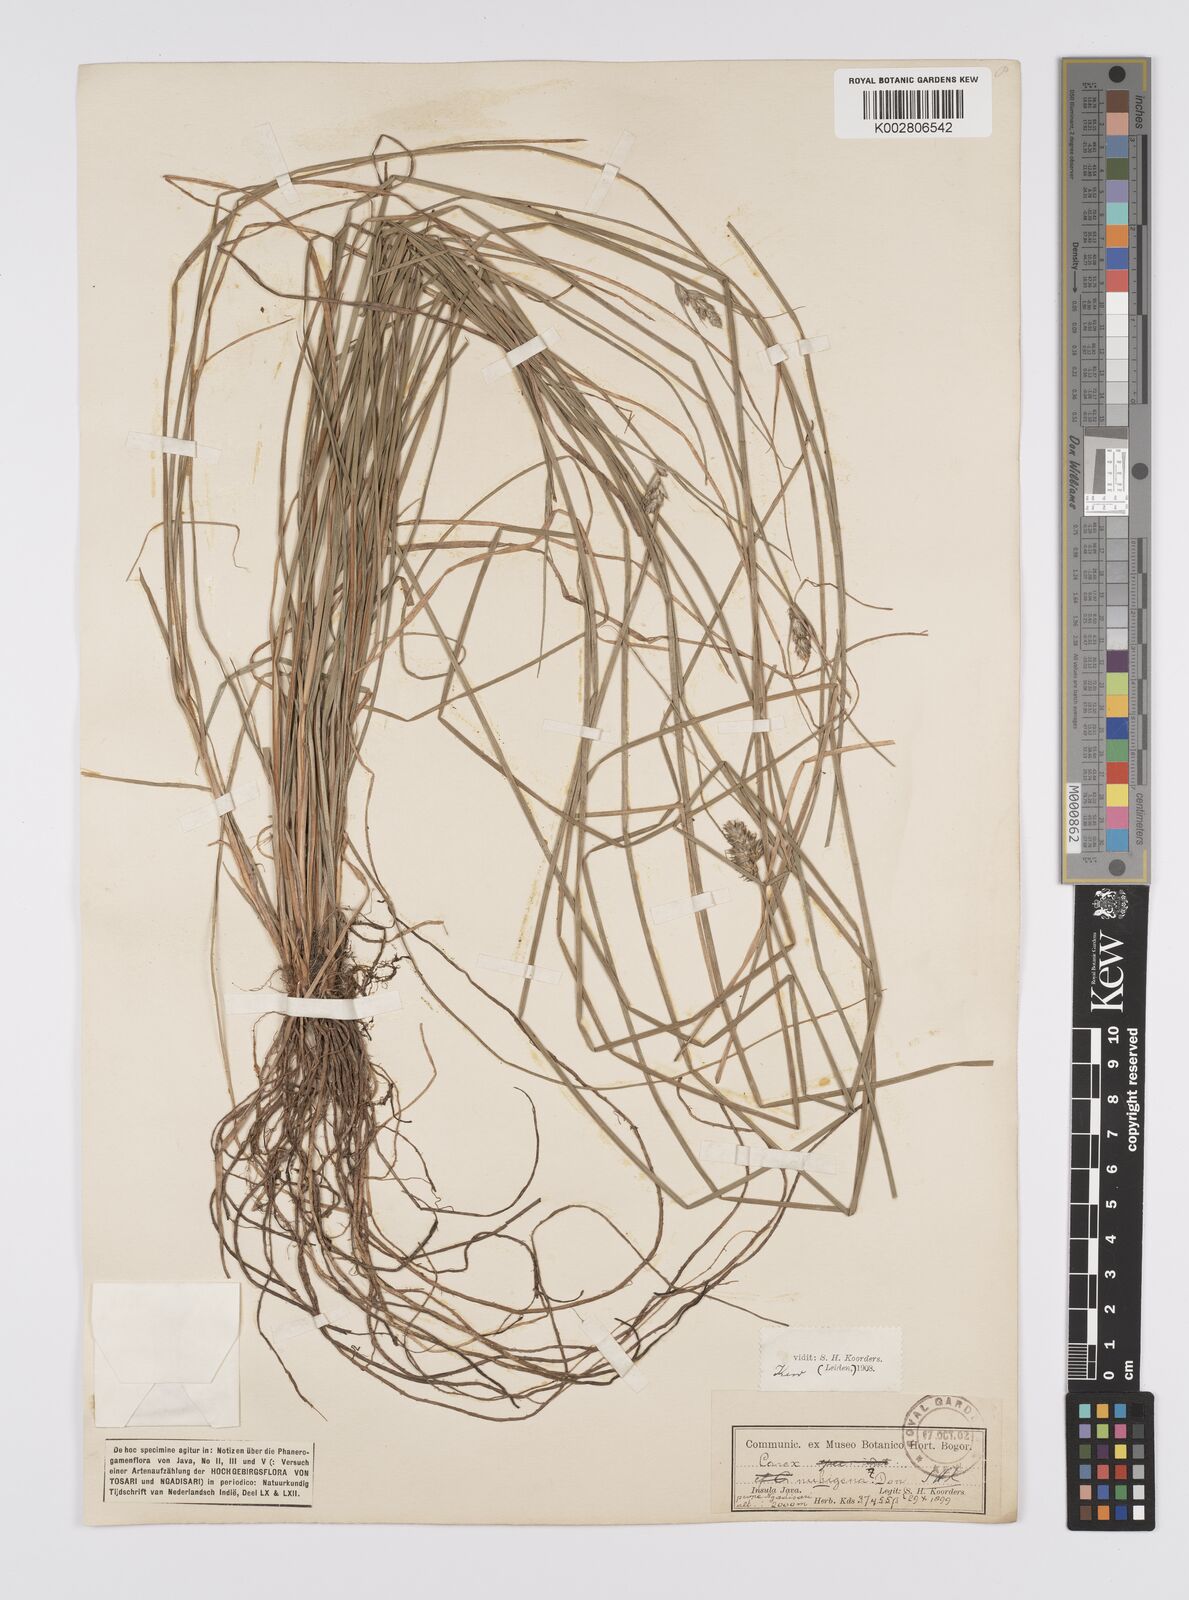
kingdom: Plantae
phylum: Tracheophyta
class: Liliopsida
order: Poales
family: Cyperaceae
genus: Carex
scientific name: Carex
